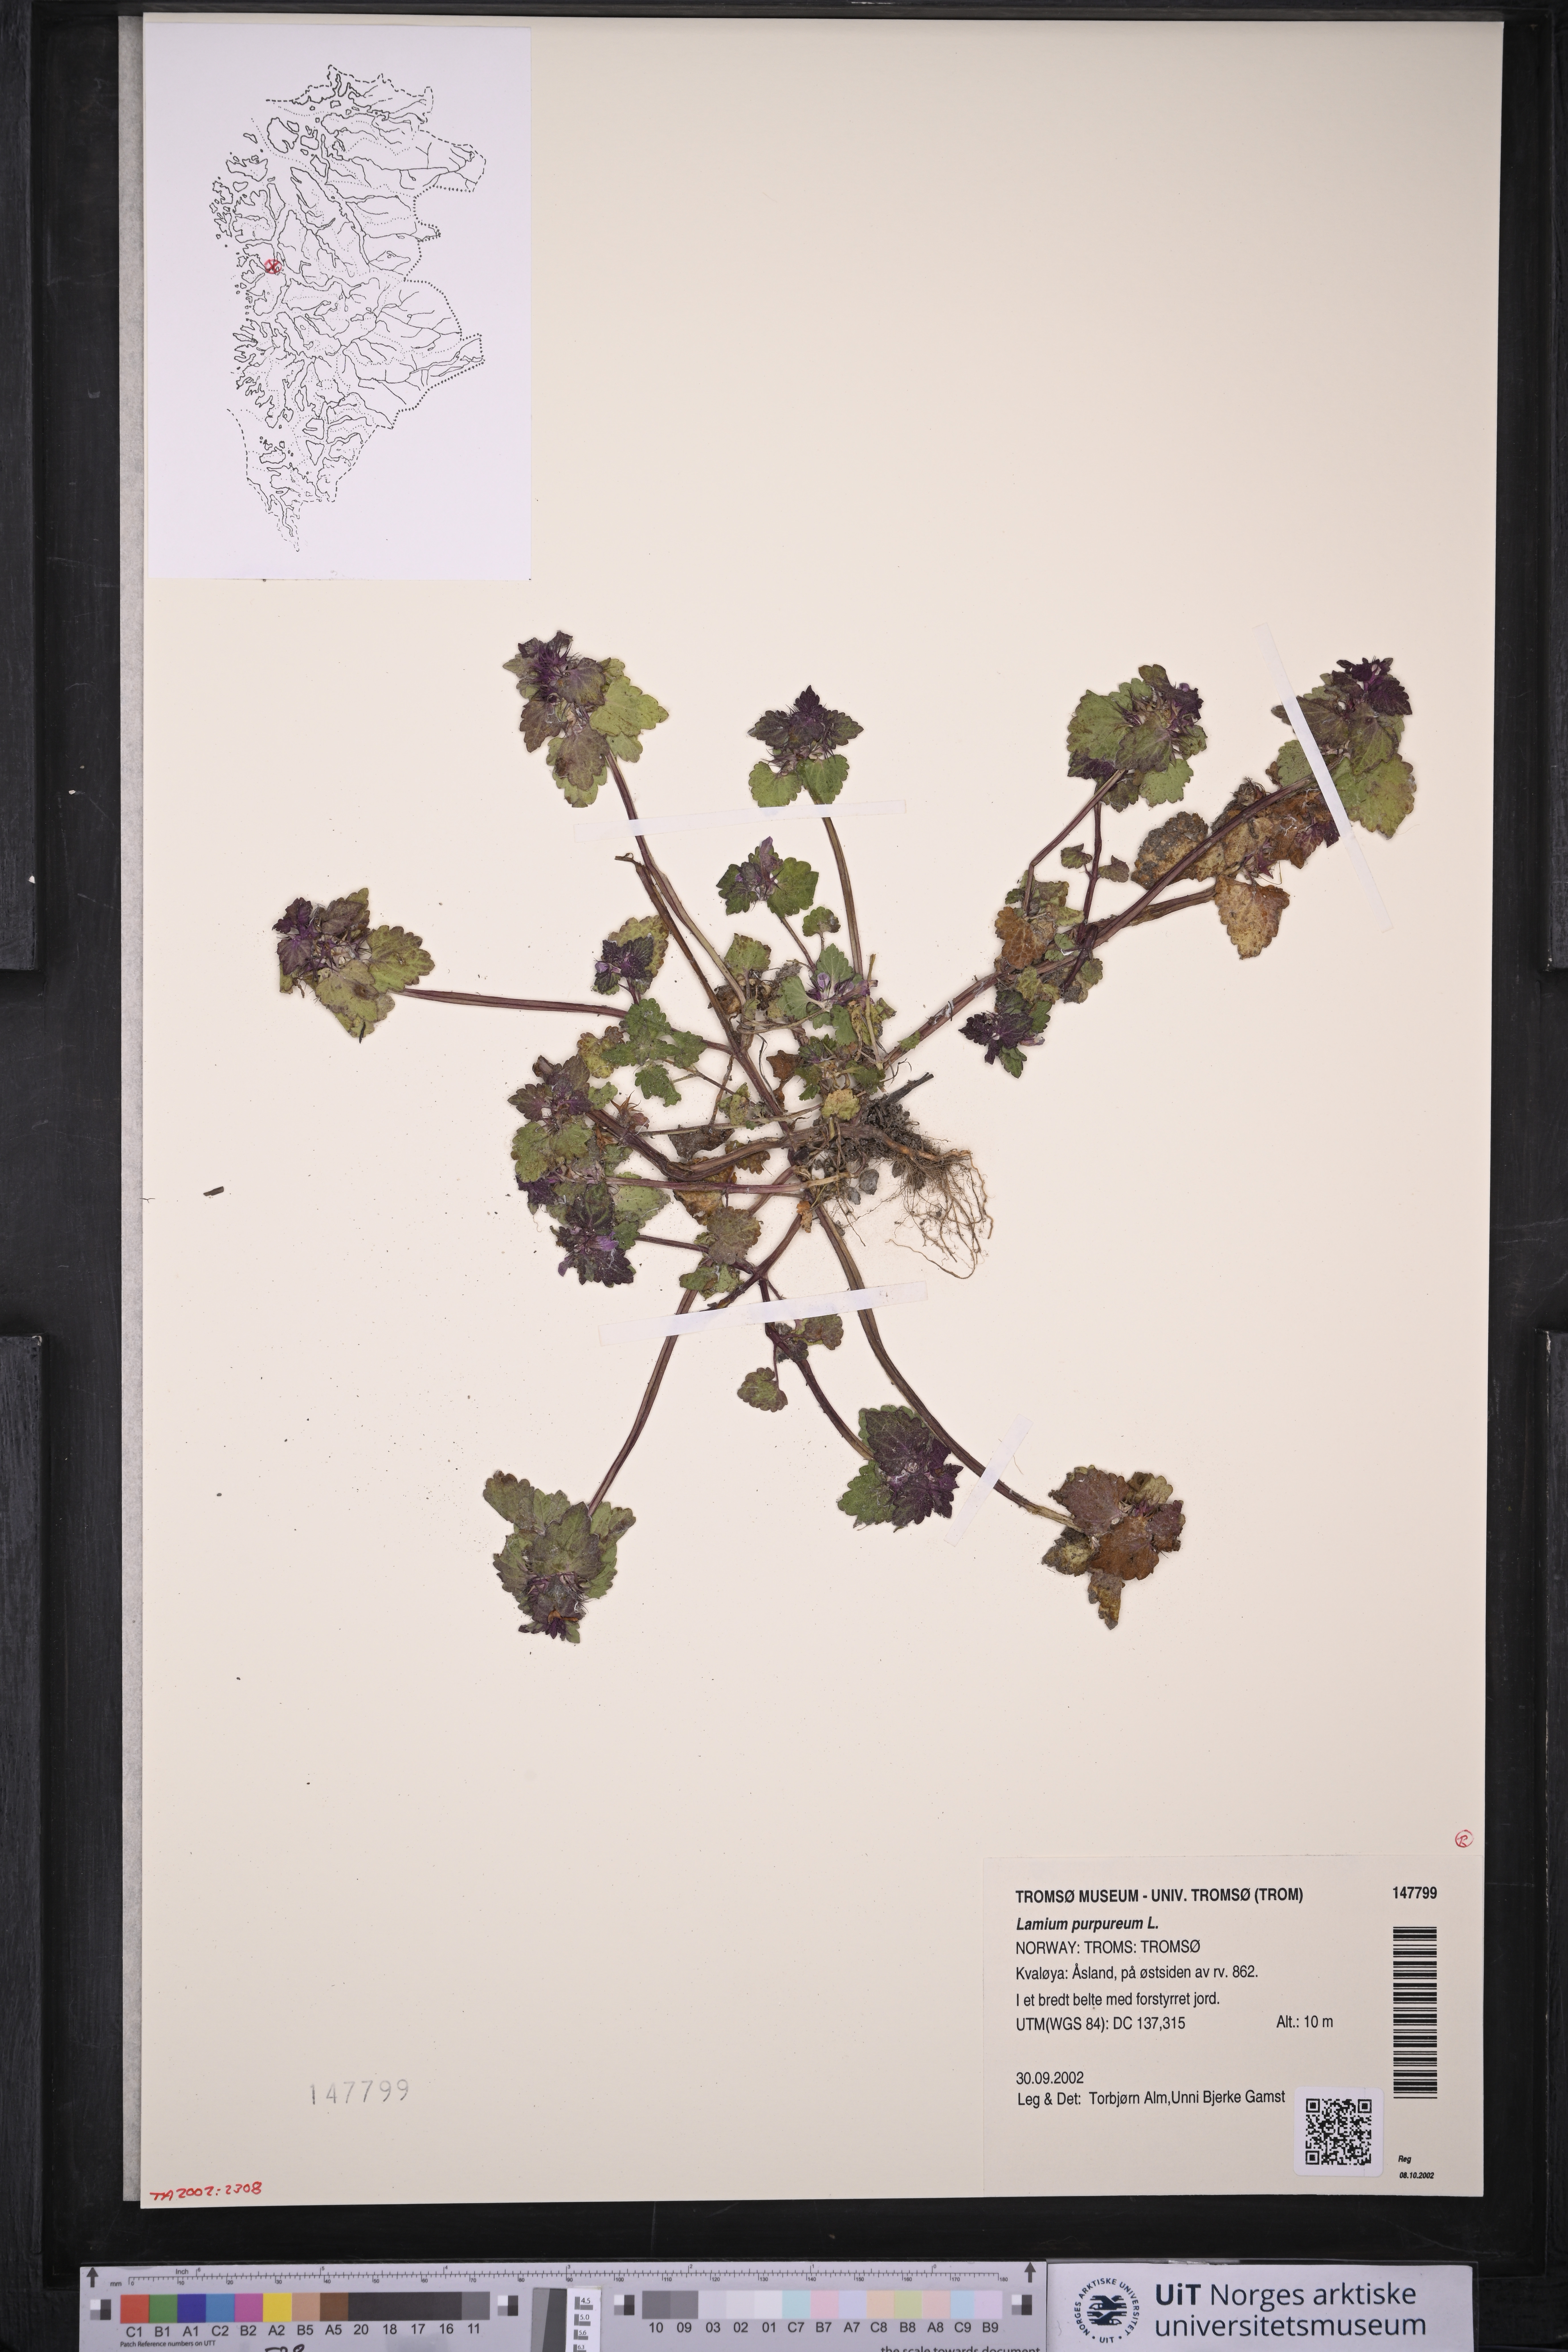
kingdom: Plantae
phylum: Tracheophyta
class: Magnoliopsida
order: Lamiales
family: Lamiaceae
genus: Lamium
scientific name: Lamium purpureum
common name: Red dead-nettle
